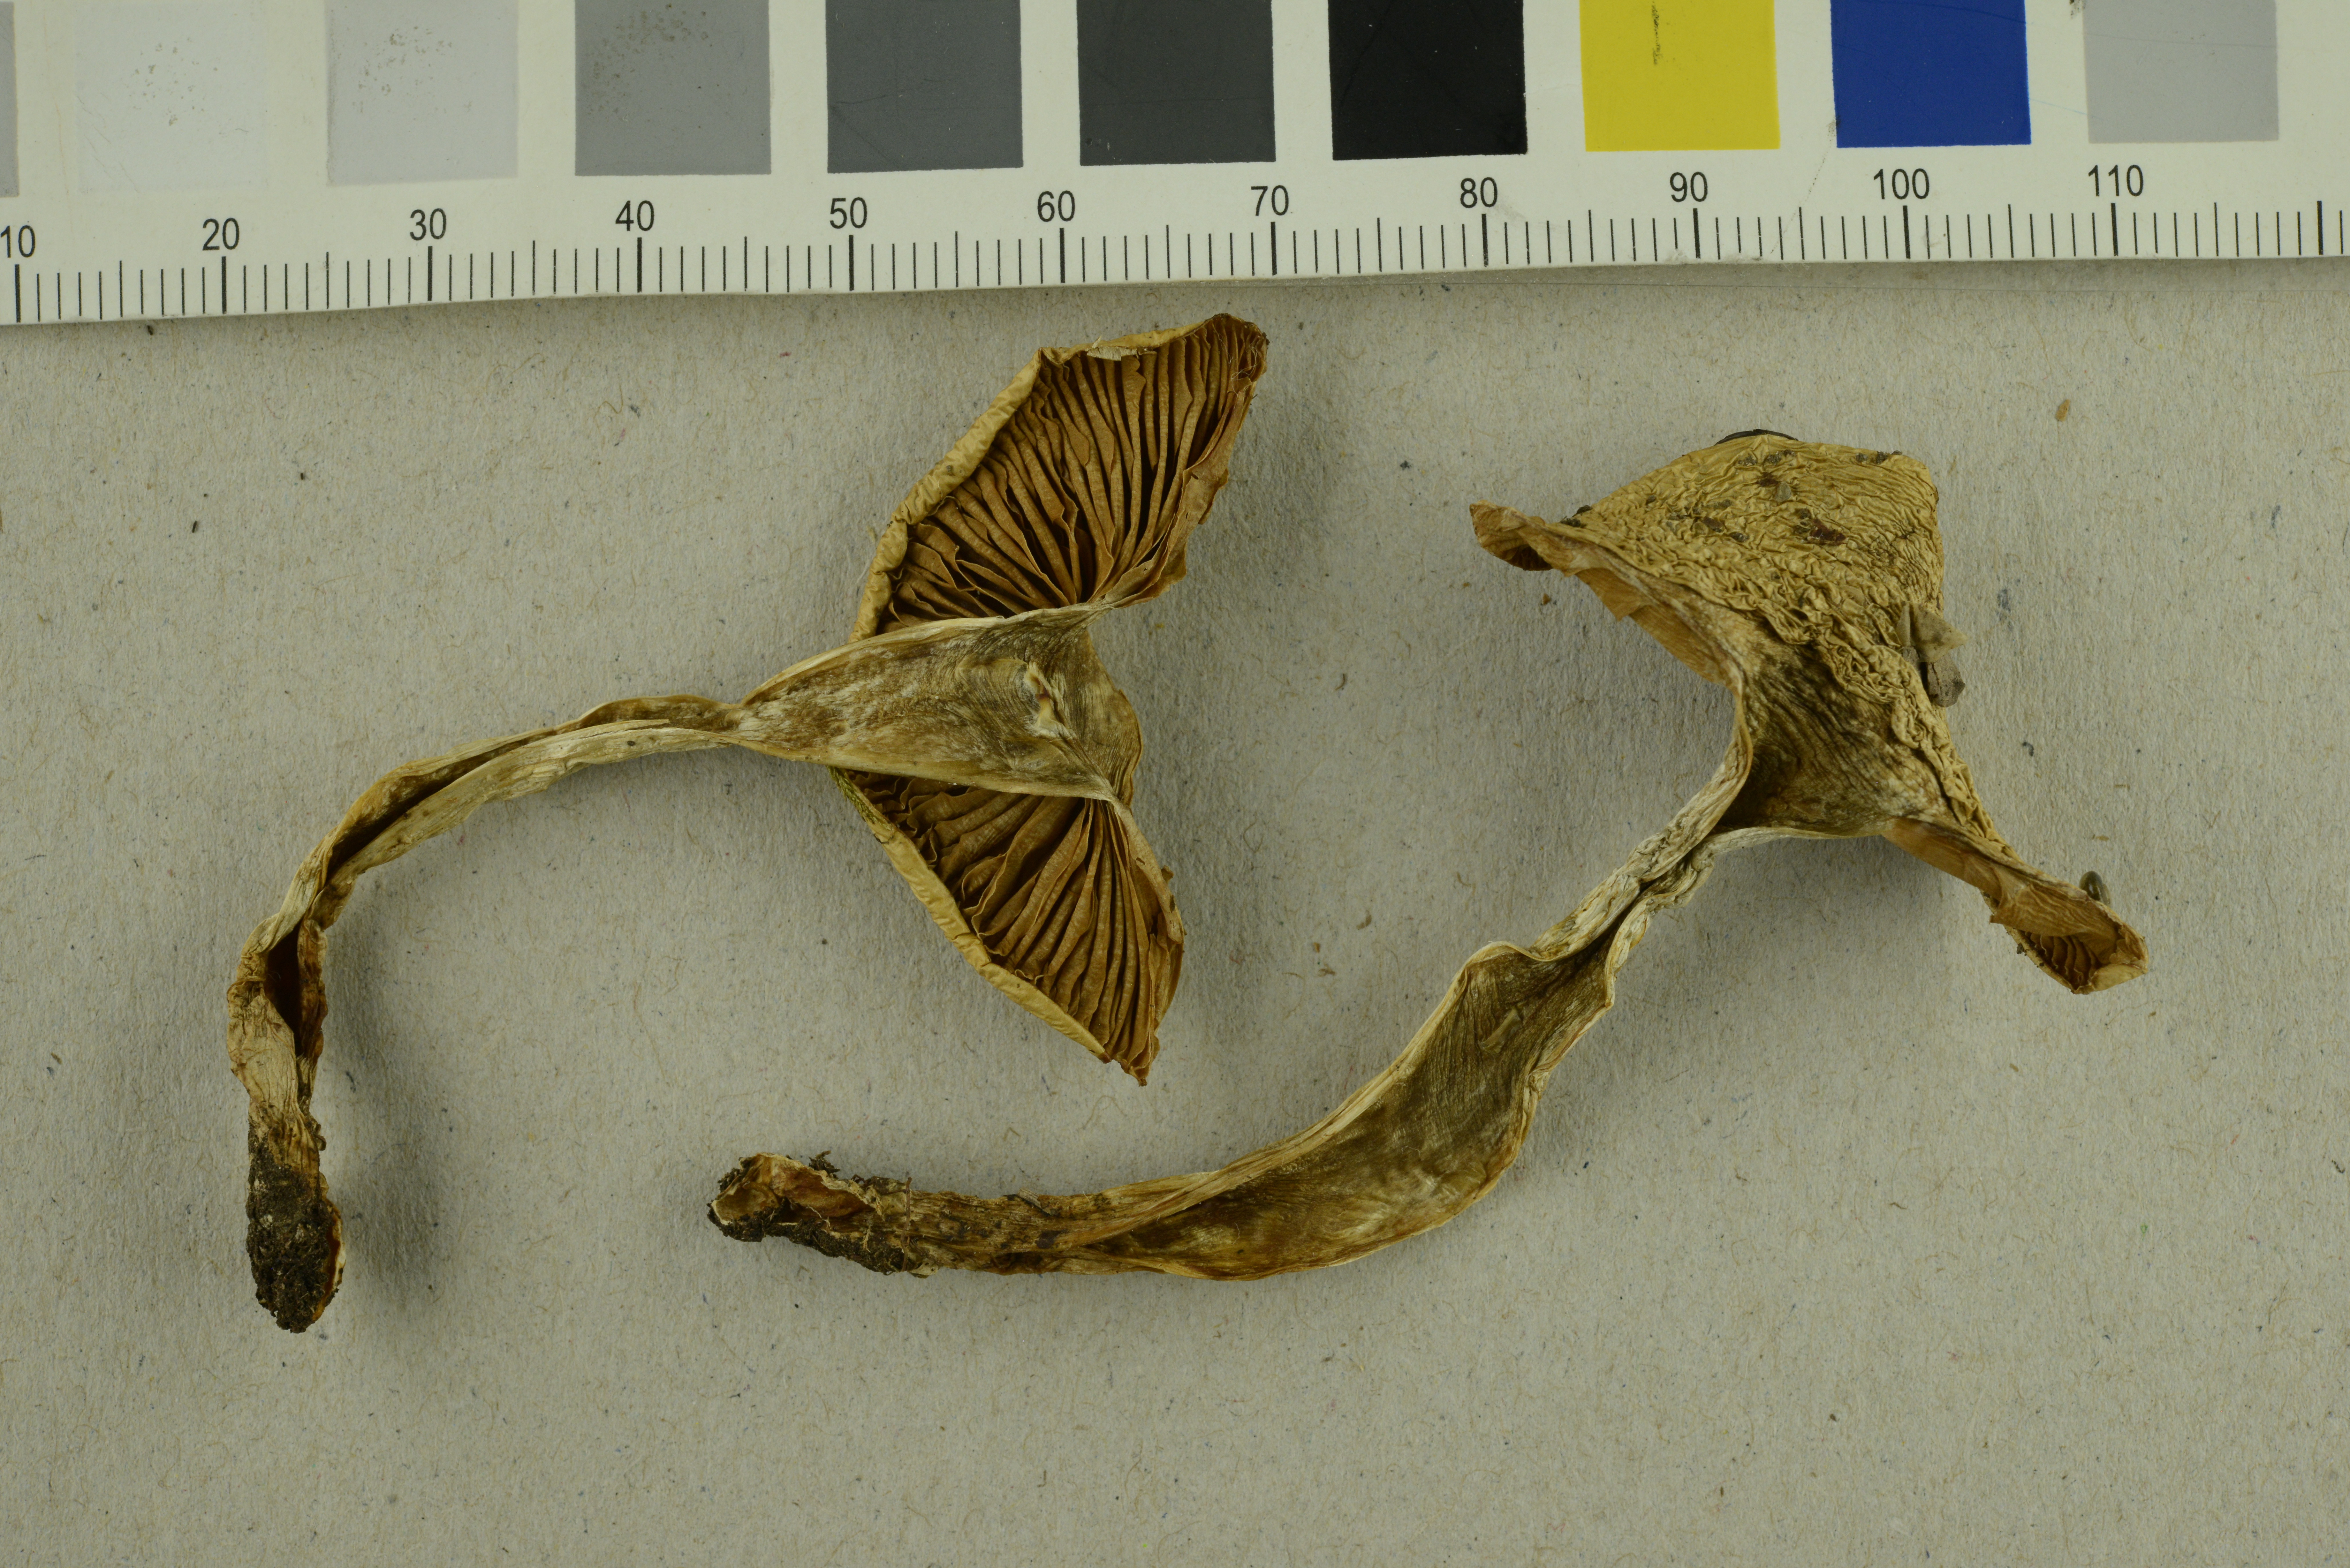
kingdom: Fungi
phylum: Basidiomycota
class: Agaricomycetes
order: Agaricales
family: Cortinariaceae
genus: Cortinarius
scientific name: Cortinarius delibutus
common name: Yellow webcap
